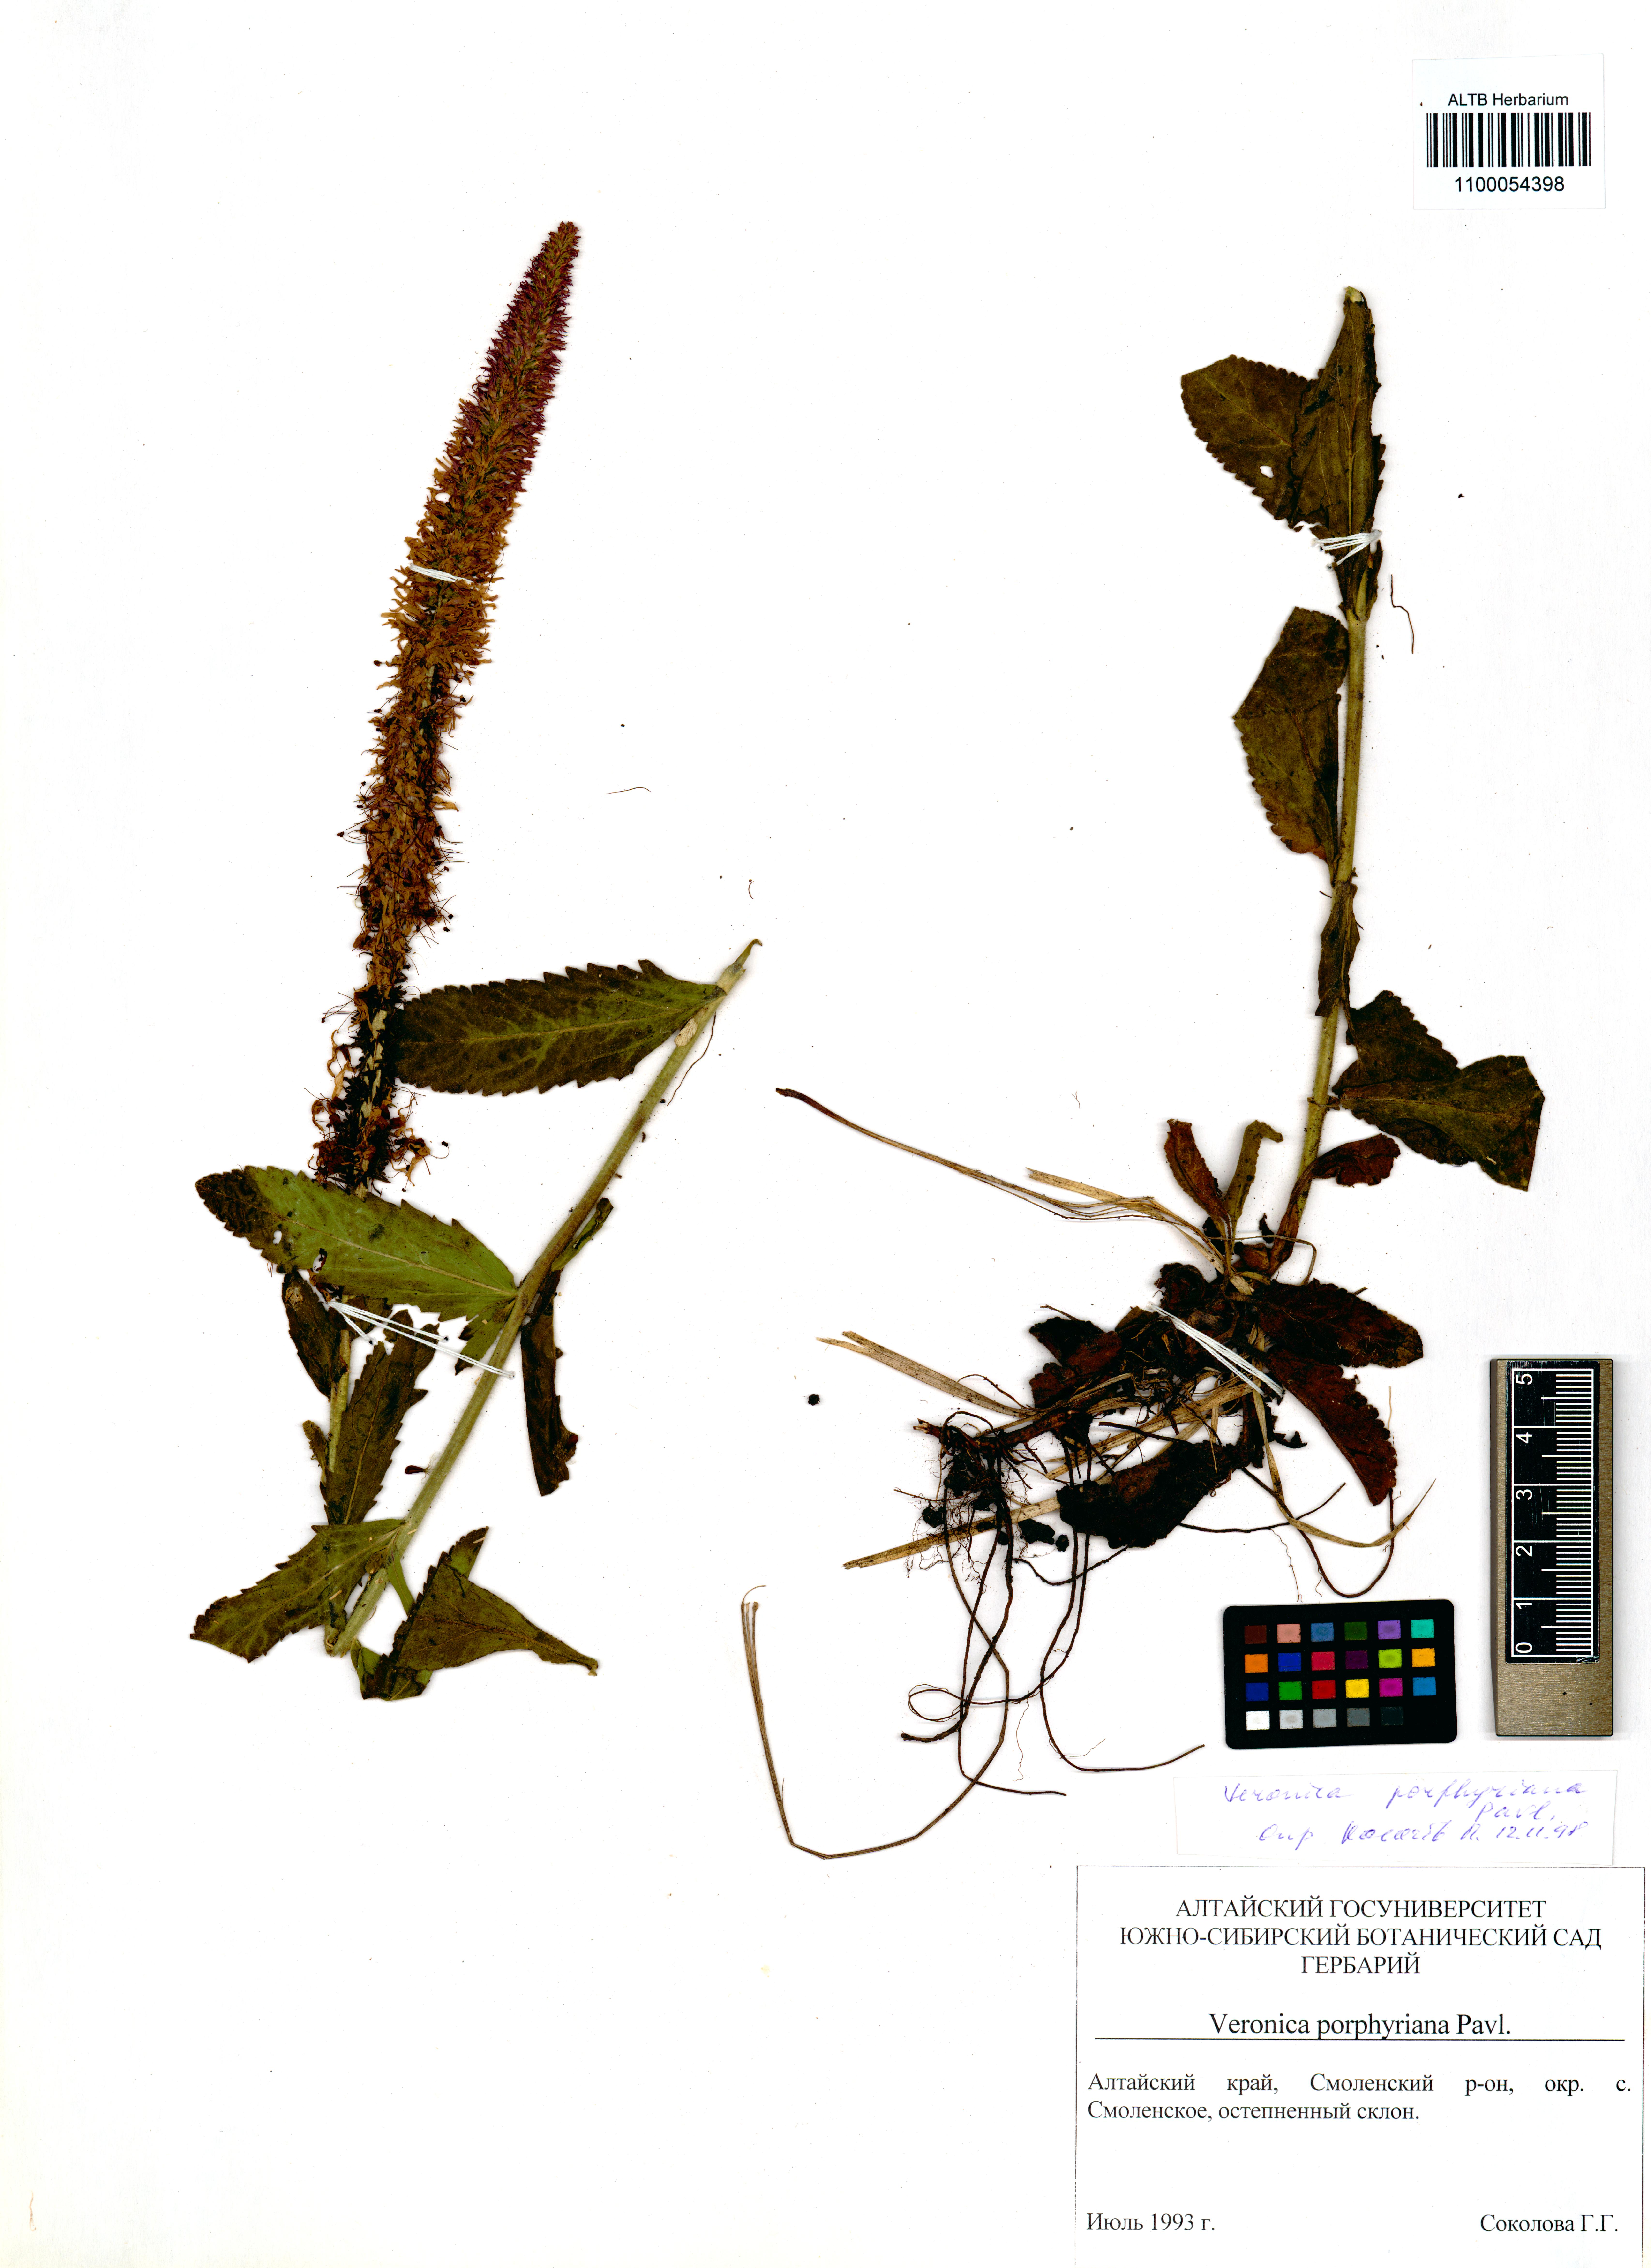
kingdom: Plantae
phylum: Tracheophyta
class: Magnoliopsida
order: Lamiales
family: Plantaginaceae
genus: Veronica
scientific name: Veronica porphyriana
